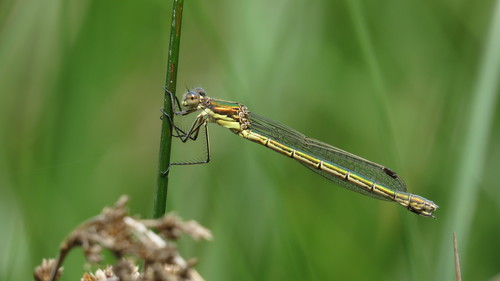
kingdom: Animalia
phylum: Arthropoda
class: Insecta
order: Odonata
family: Lestidae
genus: Lestes
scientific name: Lestes dryas
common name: Scarce emerald damselfly
